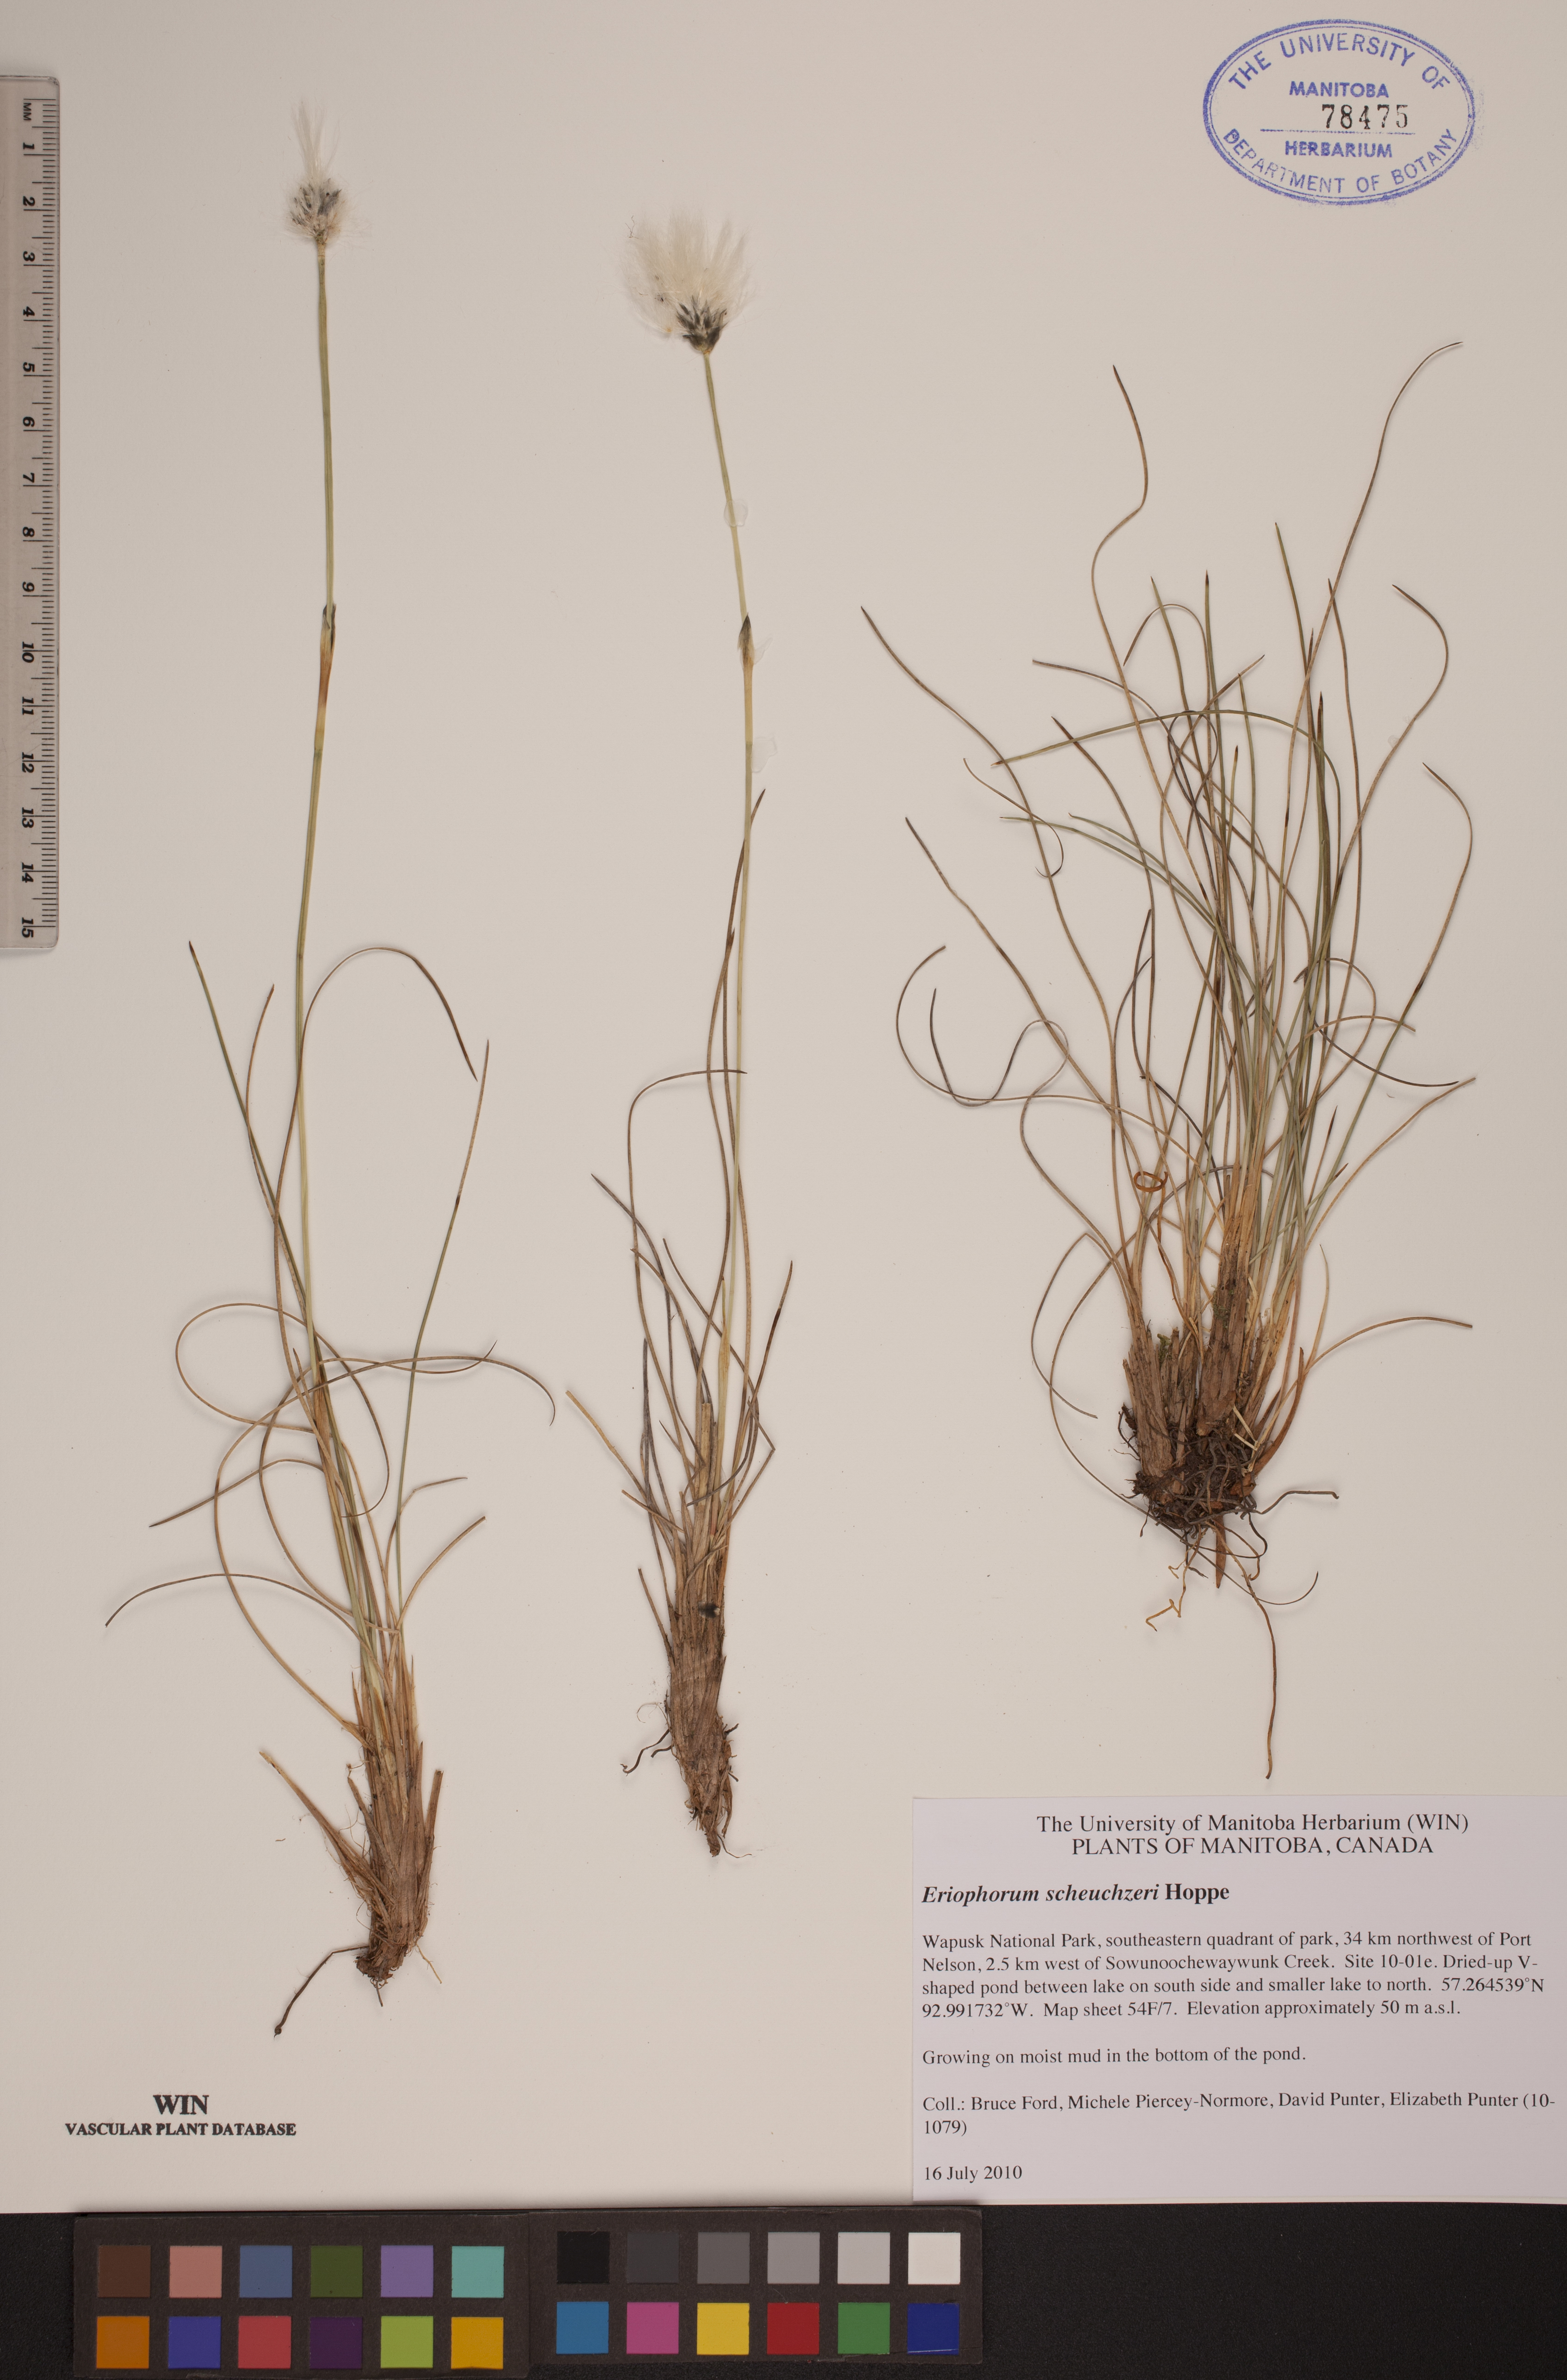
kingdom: Plantae
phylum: Tracheophyta
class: Liliopsida
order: Poales
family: Cyperaceae
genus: Eriophorum
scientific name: Eriophorum scheuchzeri
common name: Scheuchzer's cottongrass
